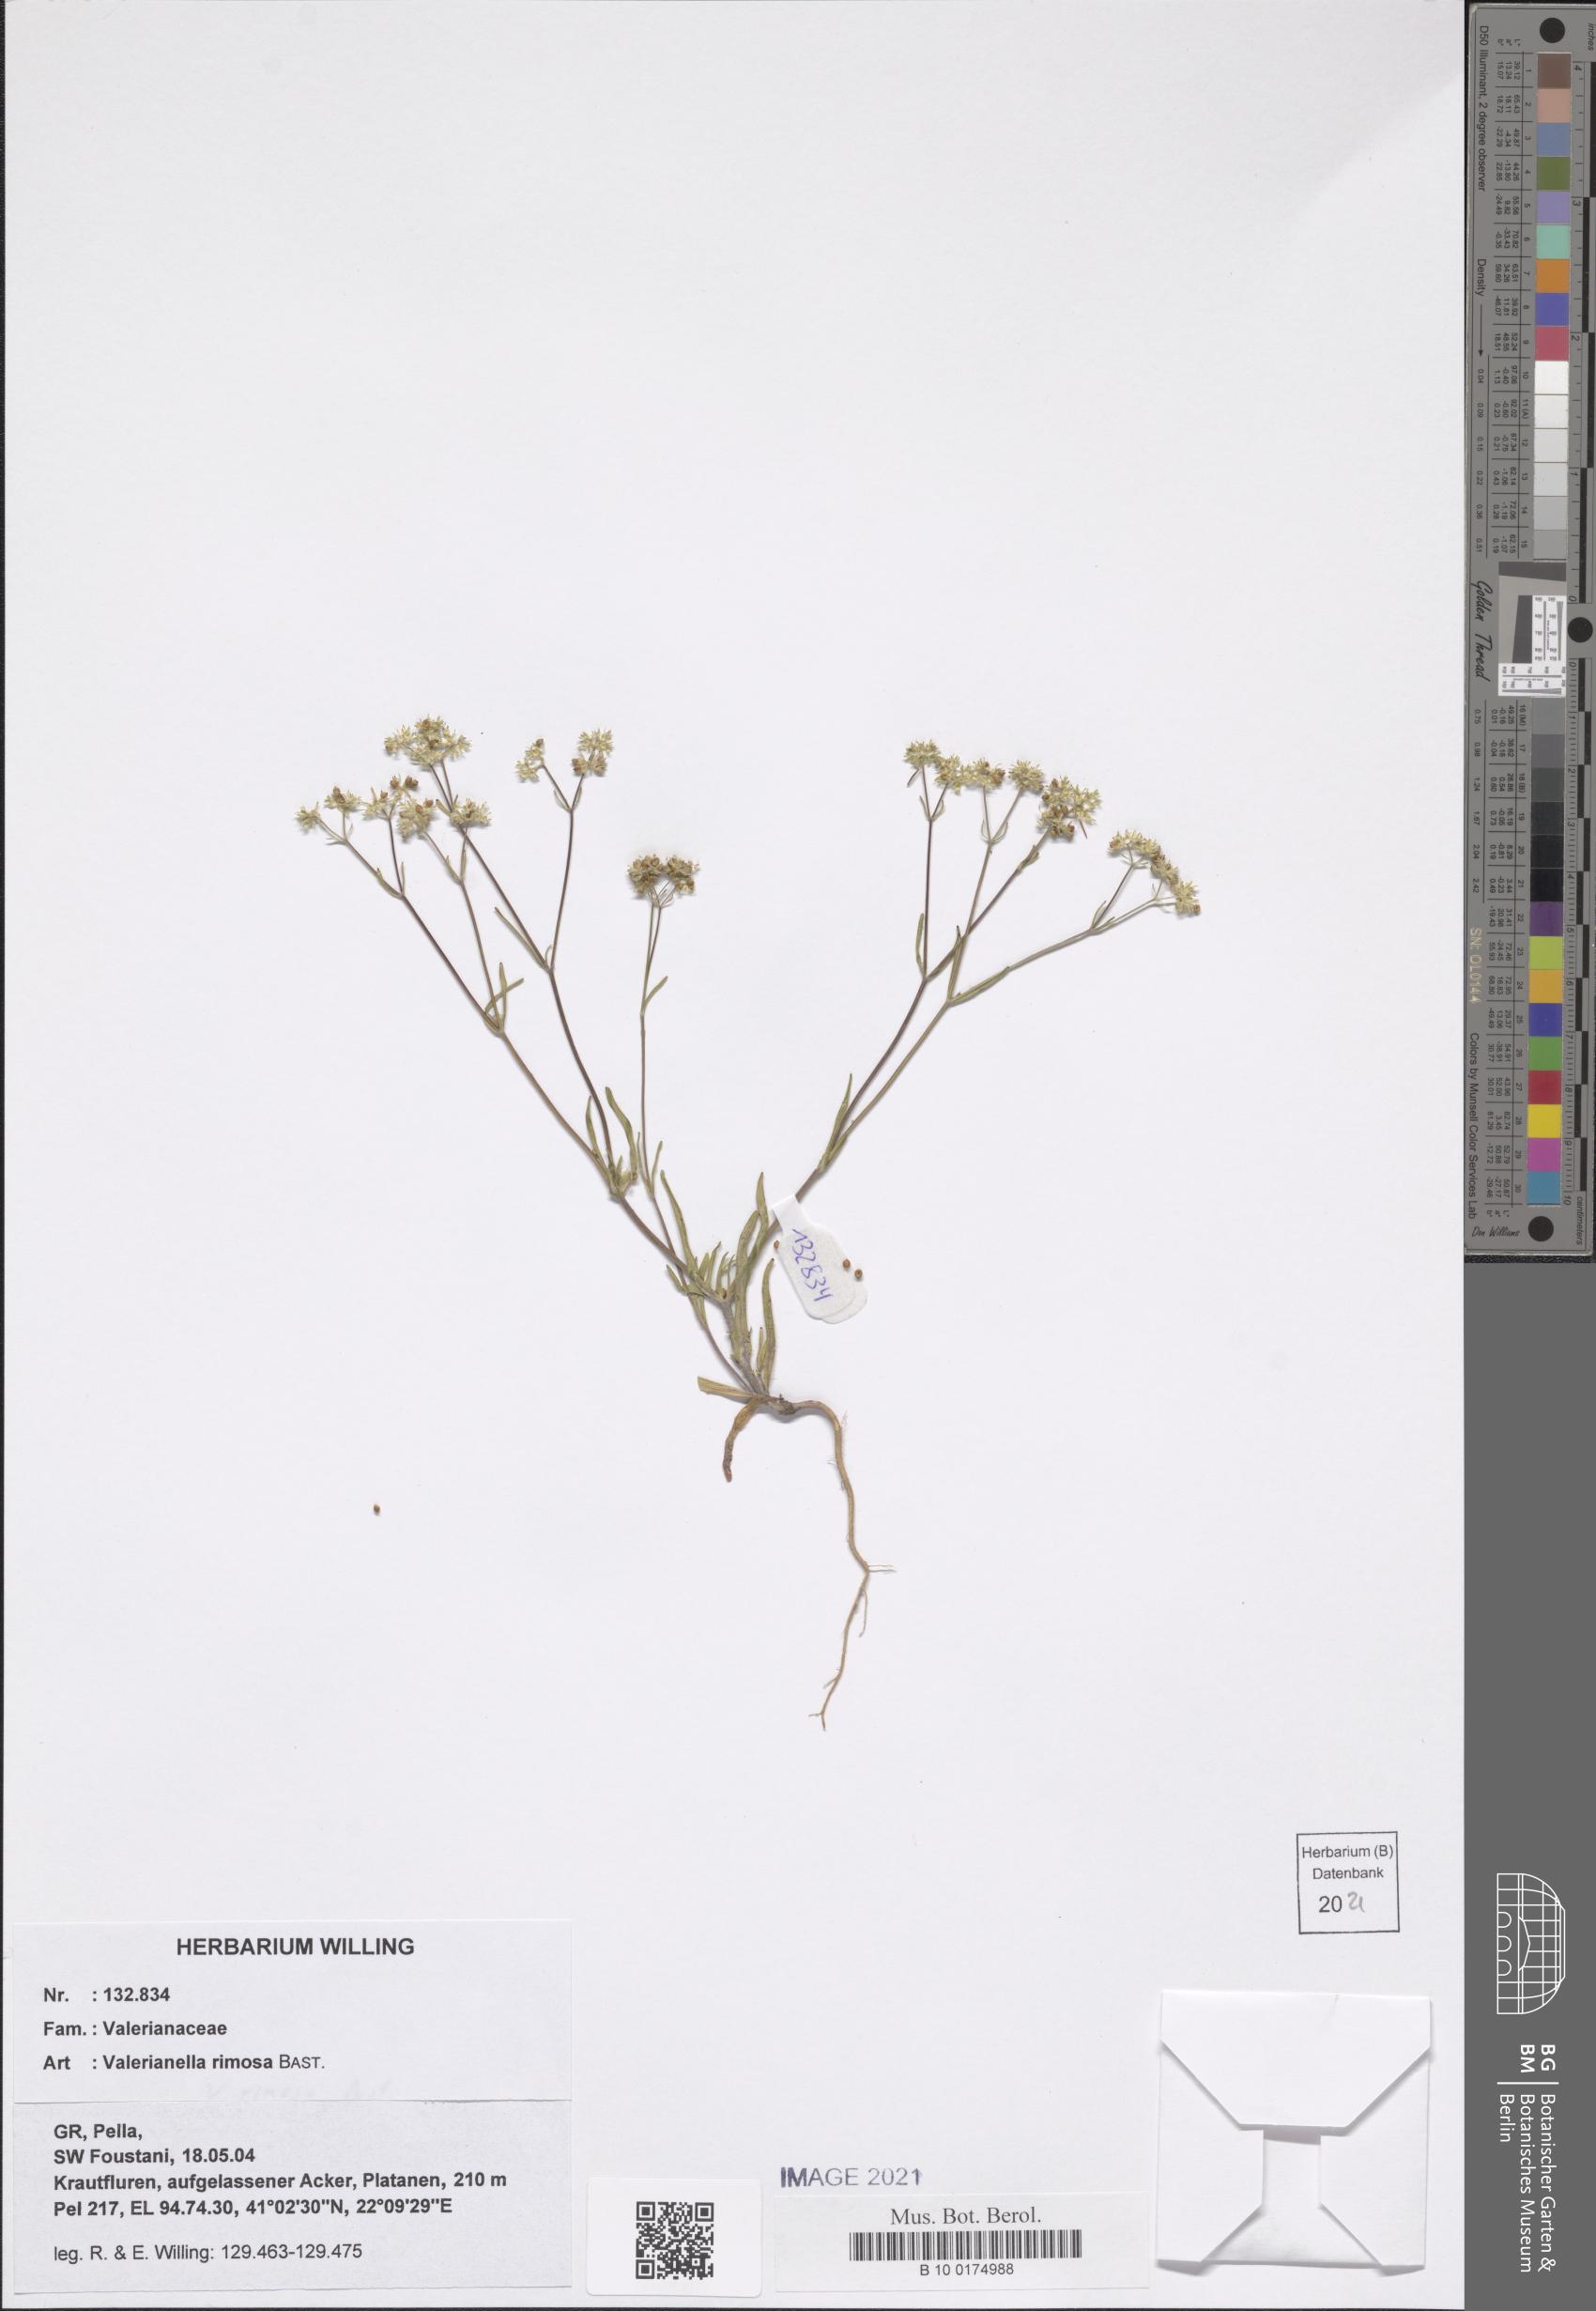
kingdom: Plantae
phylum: Tracheophyta
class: Magnoliopsida
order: Dipsacales
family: Caprifoliaceae
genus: Valerianella
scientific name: Valerianella rimosa
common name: Broad-fruited cornsalad
